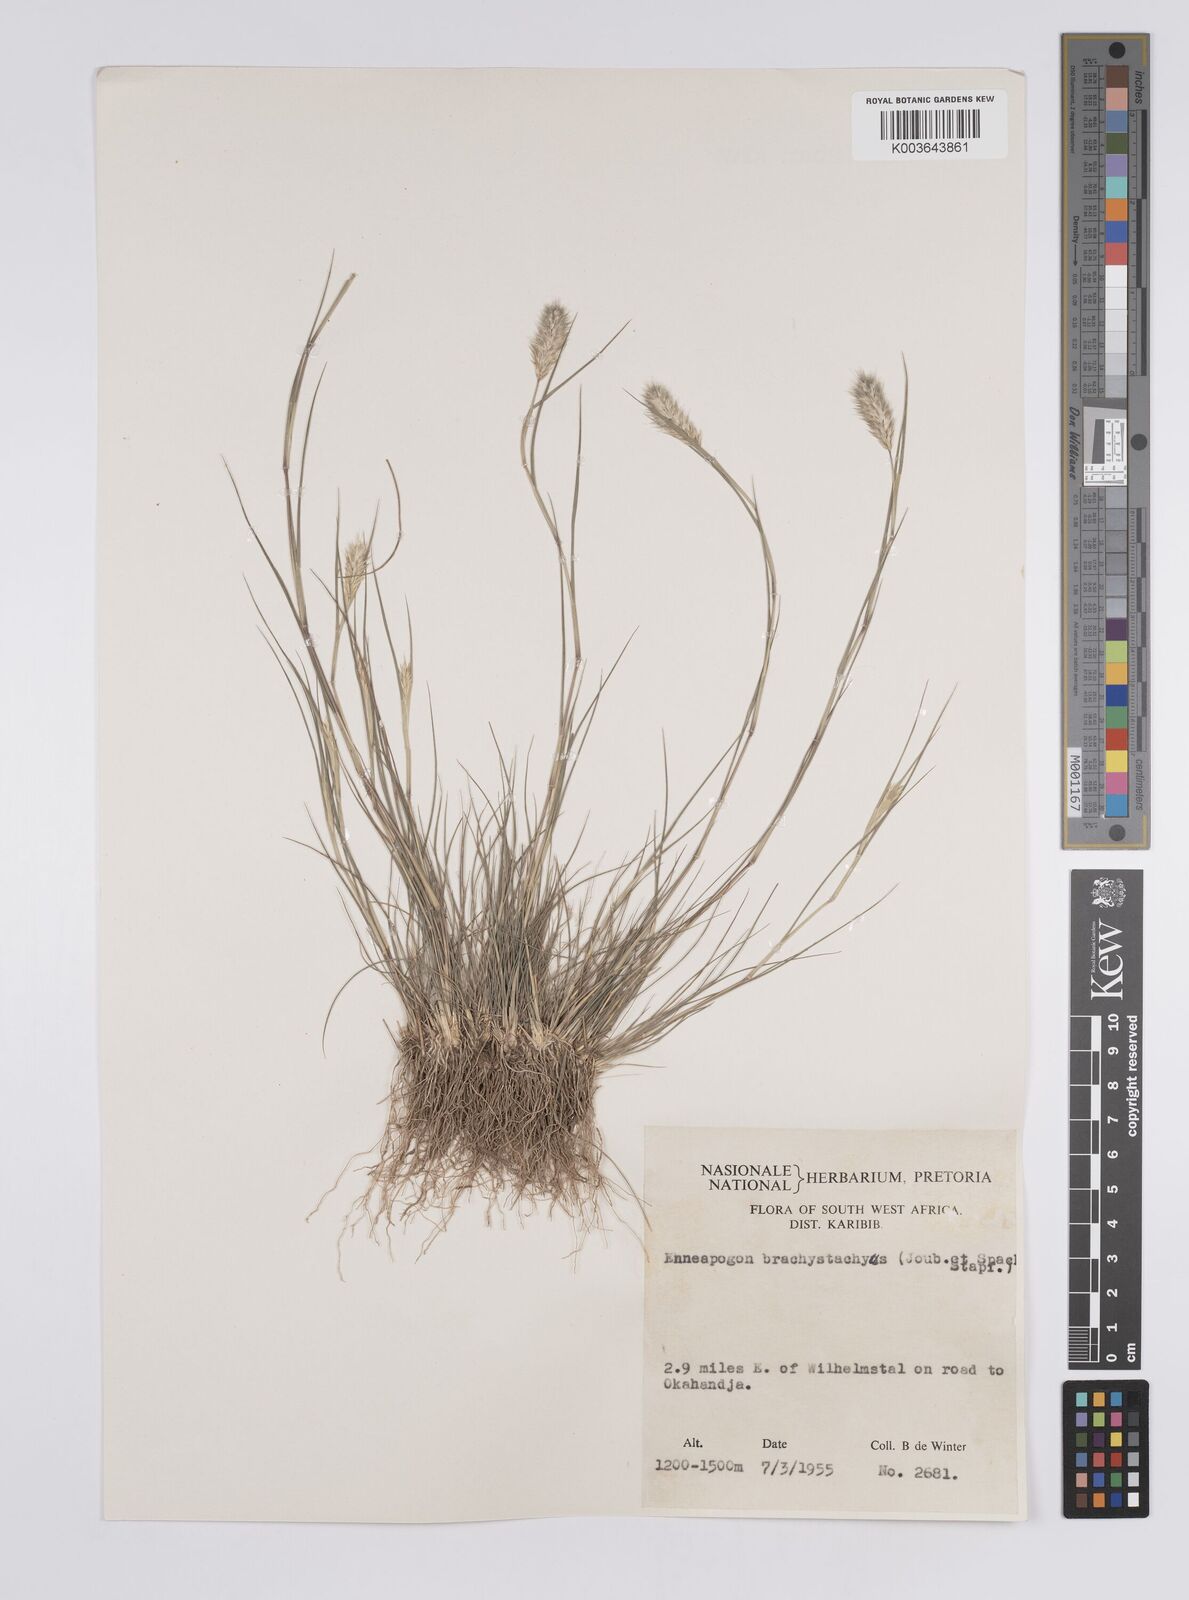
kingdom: Plantae
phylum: Tracheophyta
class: Liliopsida
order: Poales
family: Poaceae
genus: Enneapogon
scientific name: Enneapogon desvauxii
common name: Feather pappus grass
